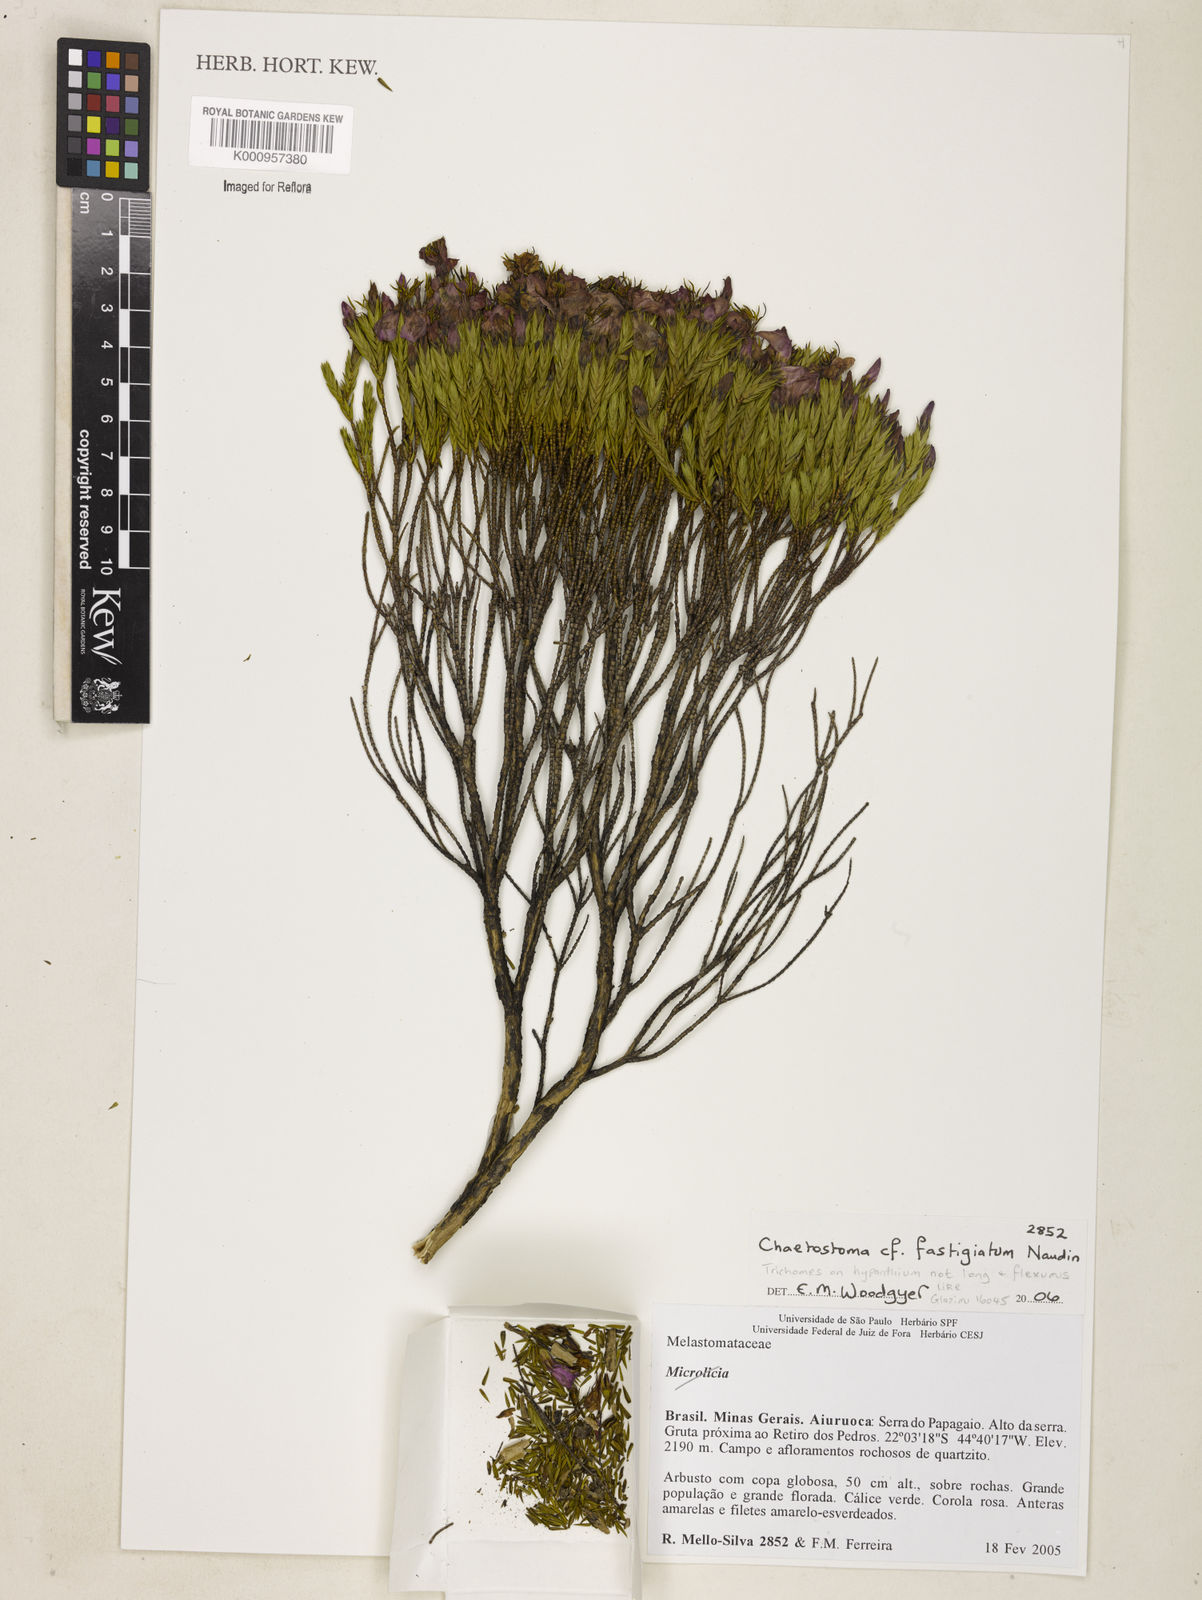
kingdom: Plantae
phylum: Tracheophyta
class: Magnoliopsida
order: Myrtales
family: Melastomataceae
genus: Microlicia
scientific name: Microlicia fastigiata
